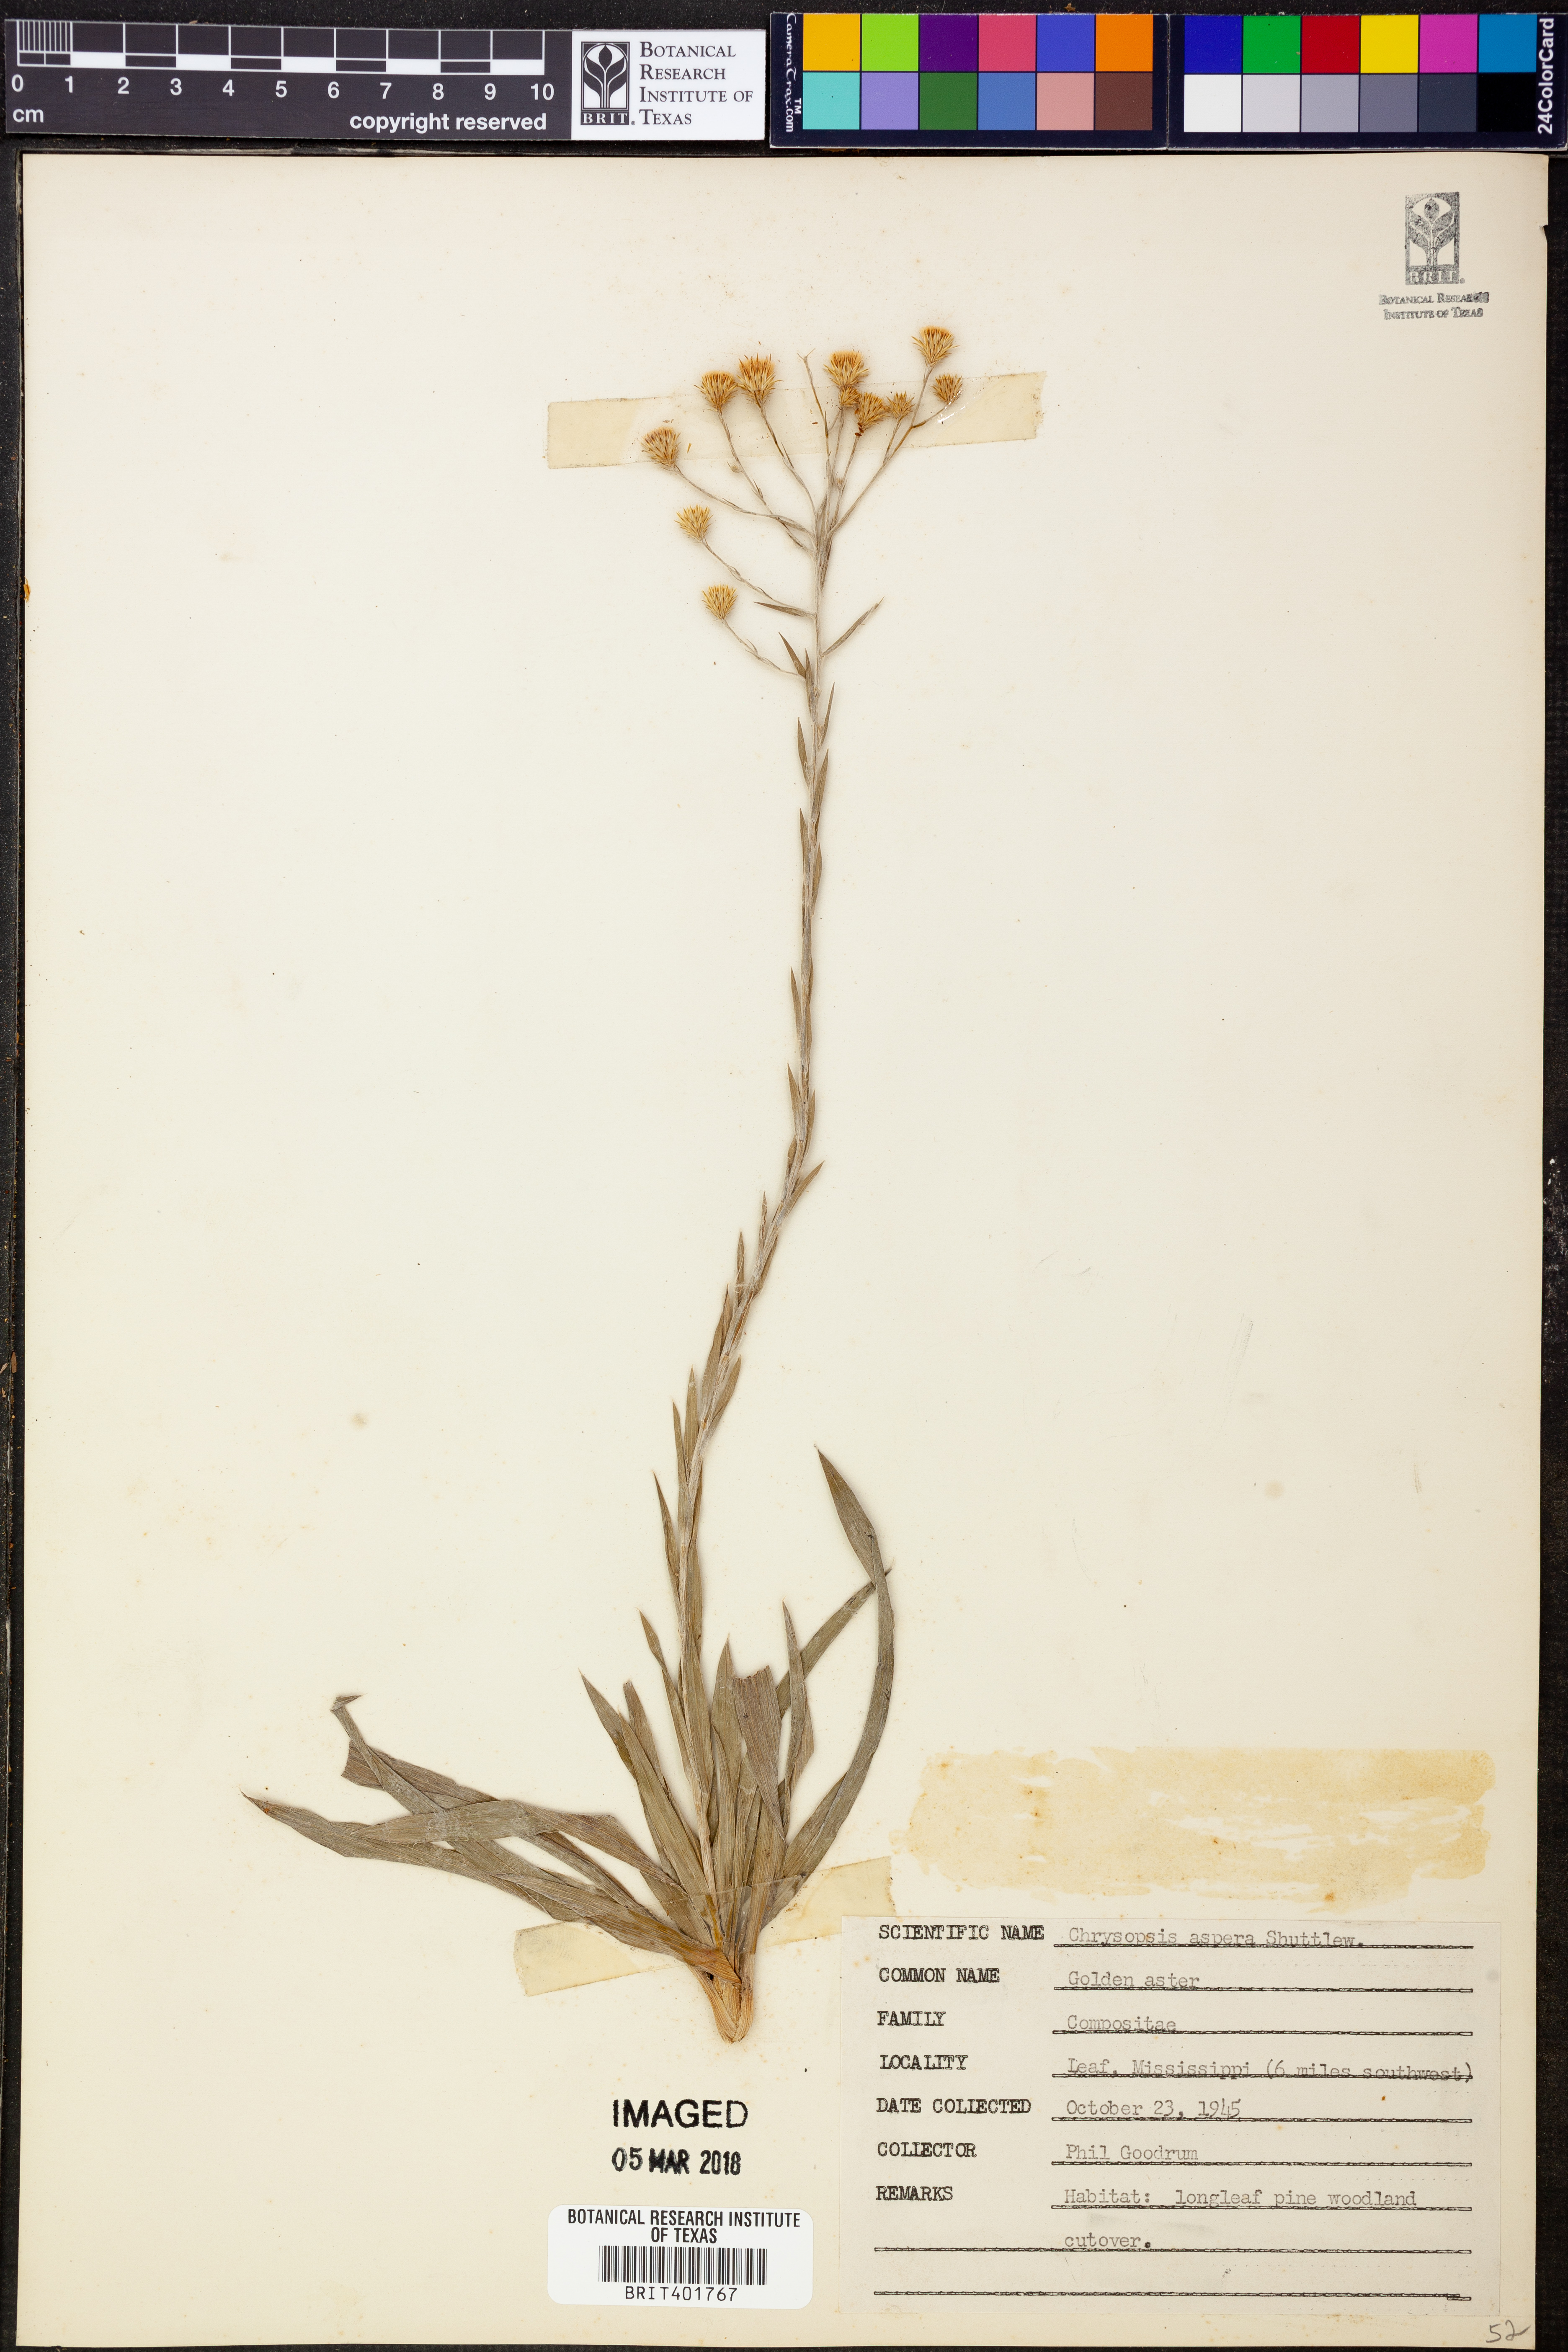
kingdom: Plantae
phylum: Tracheophyta
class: Magnoliopsida
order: Asterales
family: Asteraceae
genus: Pityopsis
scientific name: Pityopsis aspera
